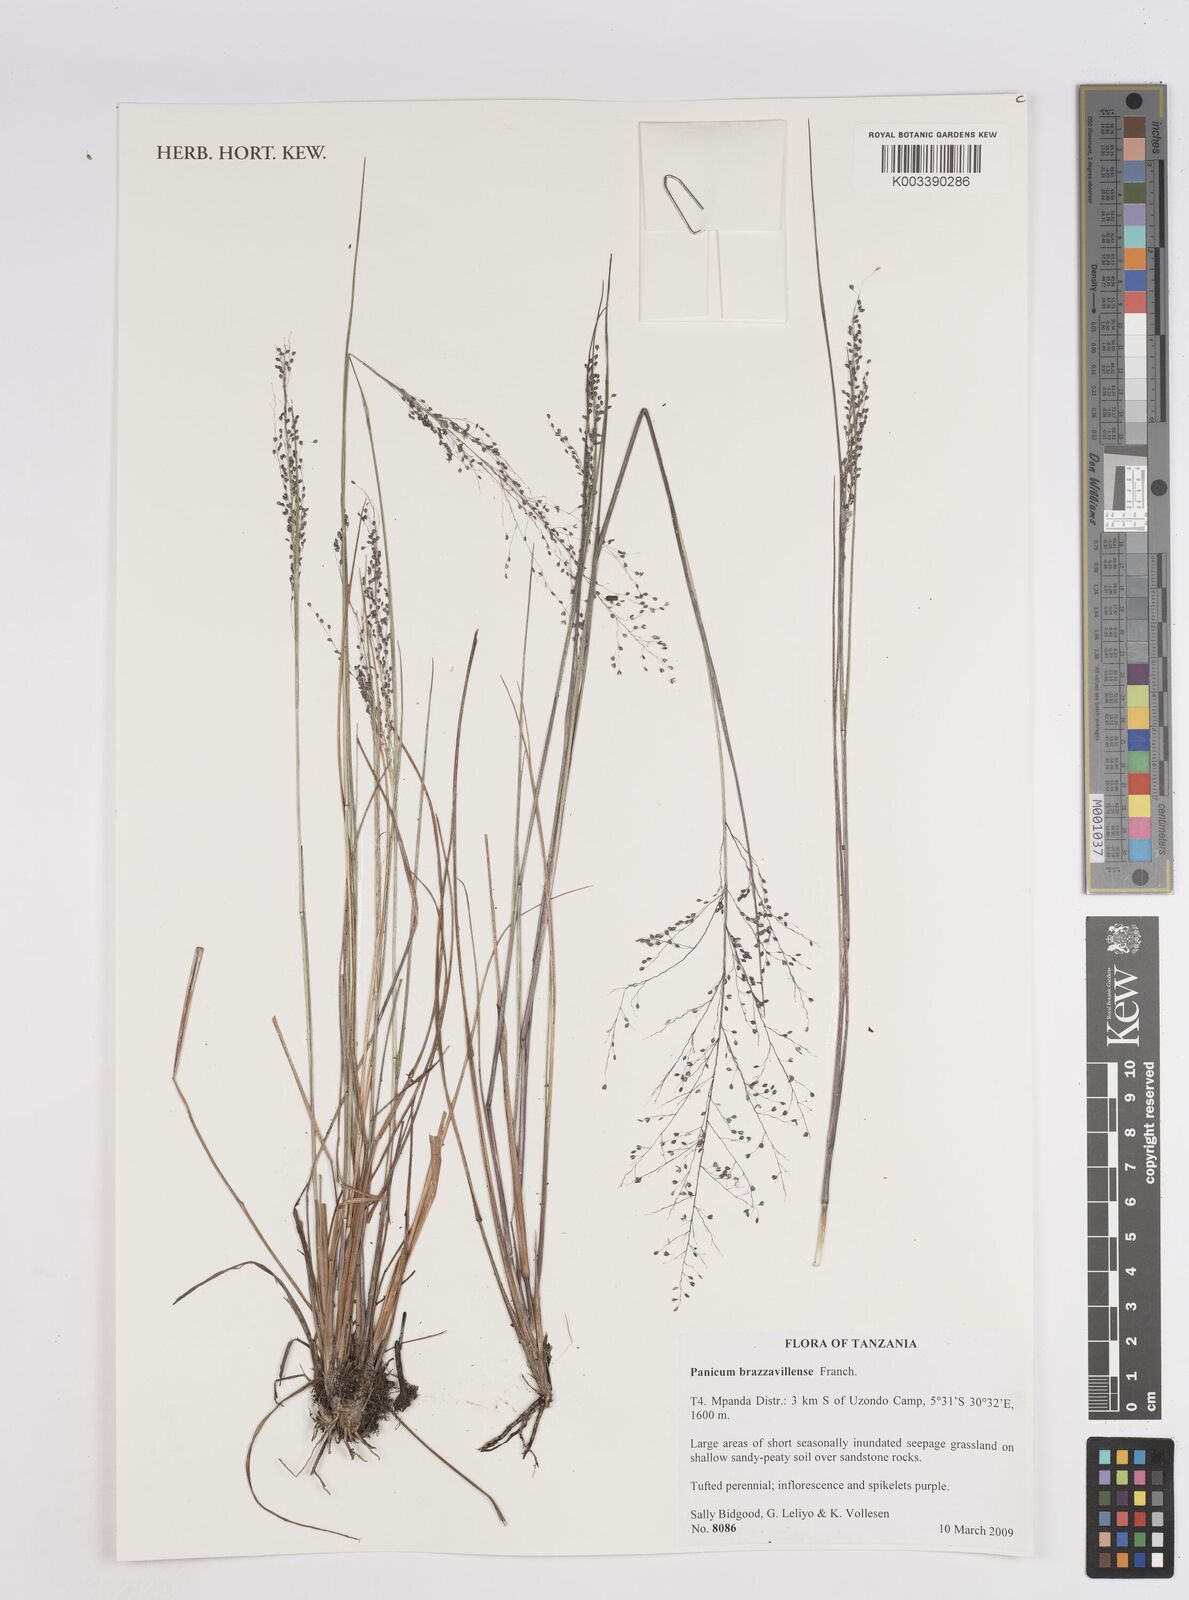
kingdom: Plantae
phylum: Tracheophyta
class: Liliopsida
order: Poales
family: Poaceae
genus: Trichanthecium
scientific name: Trichanthecium brazzavillense
